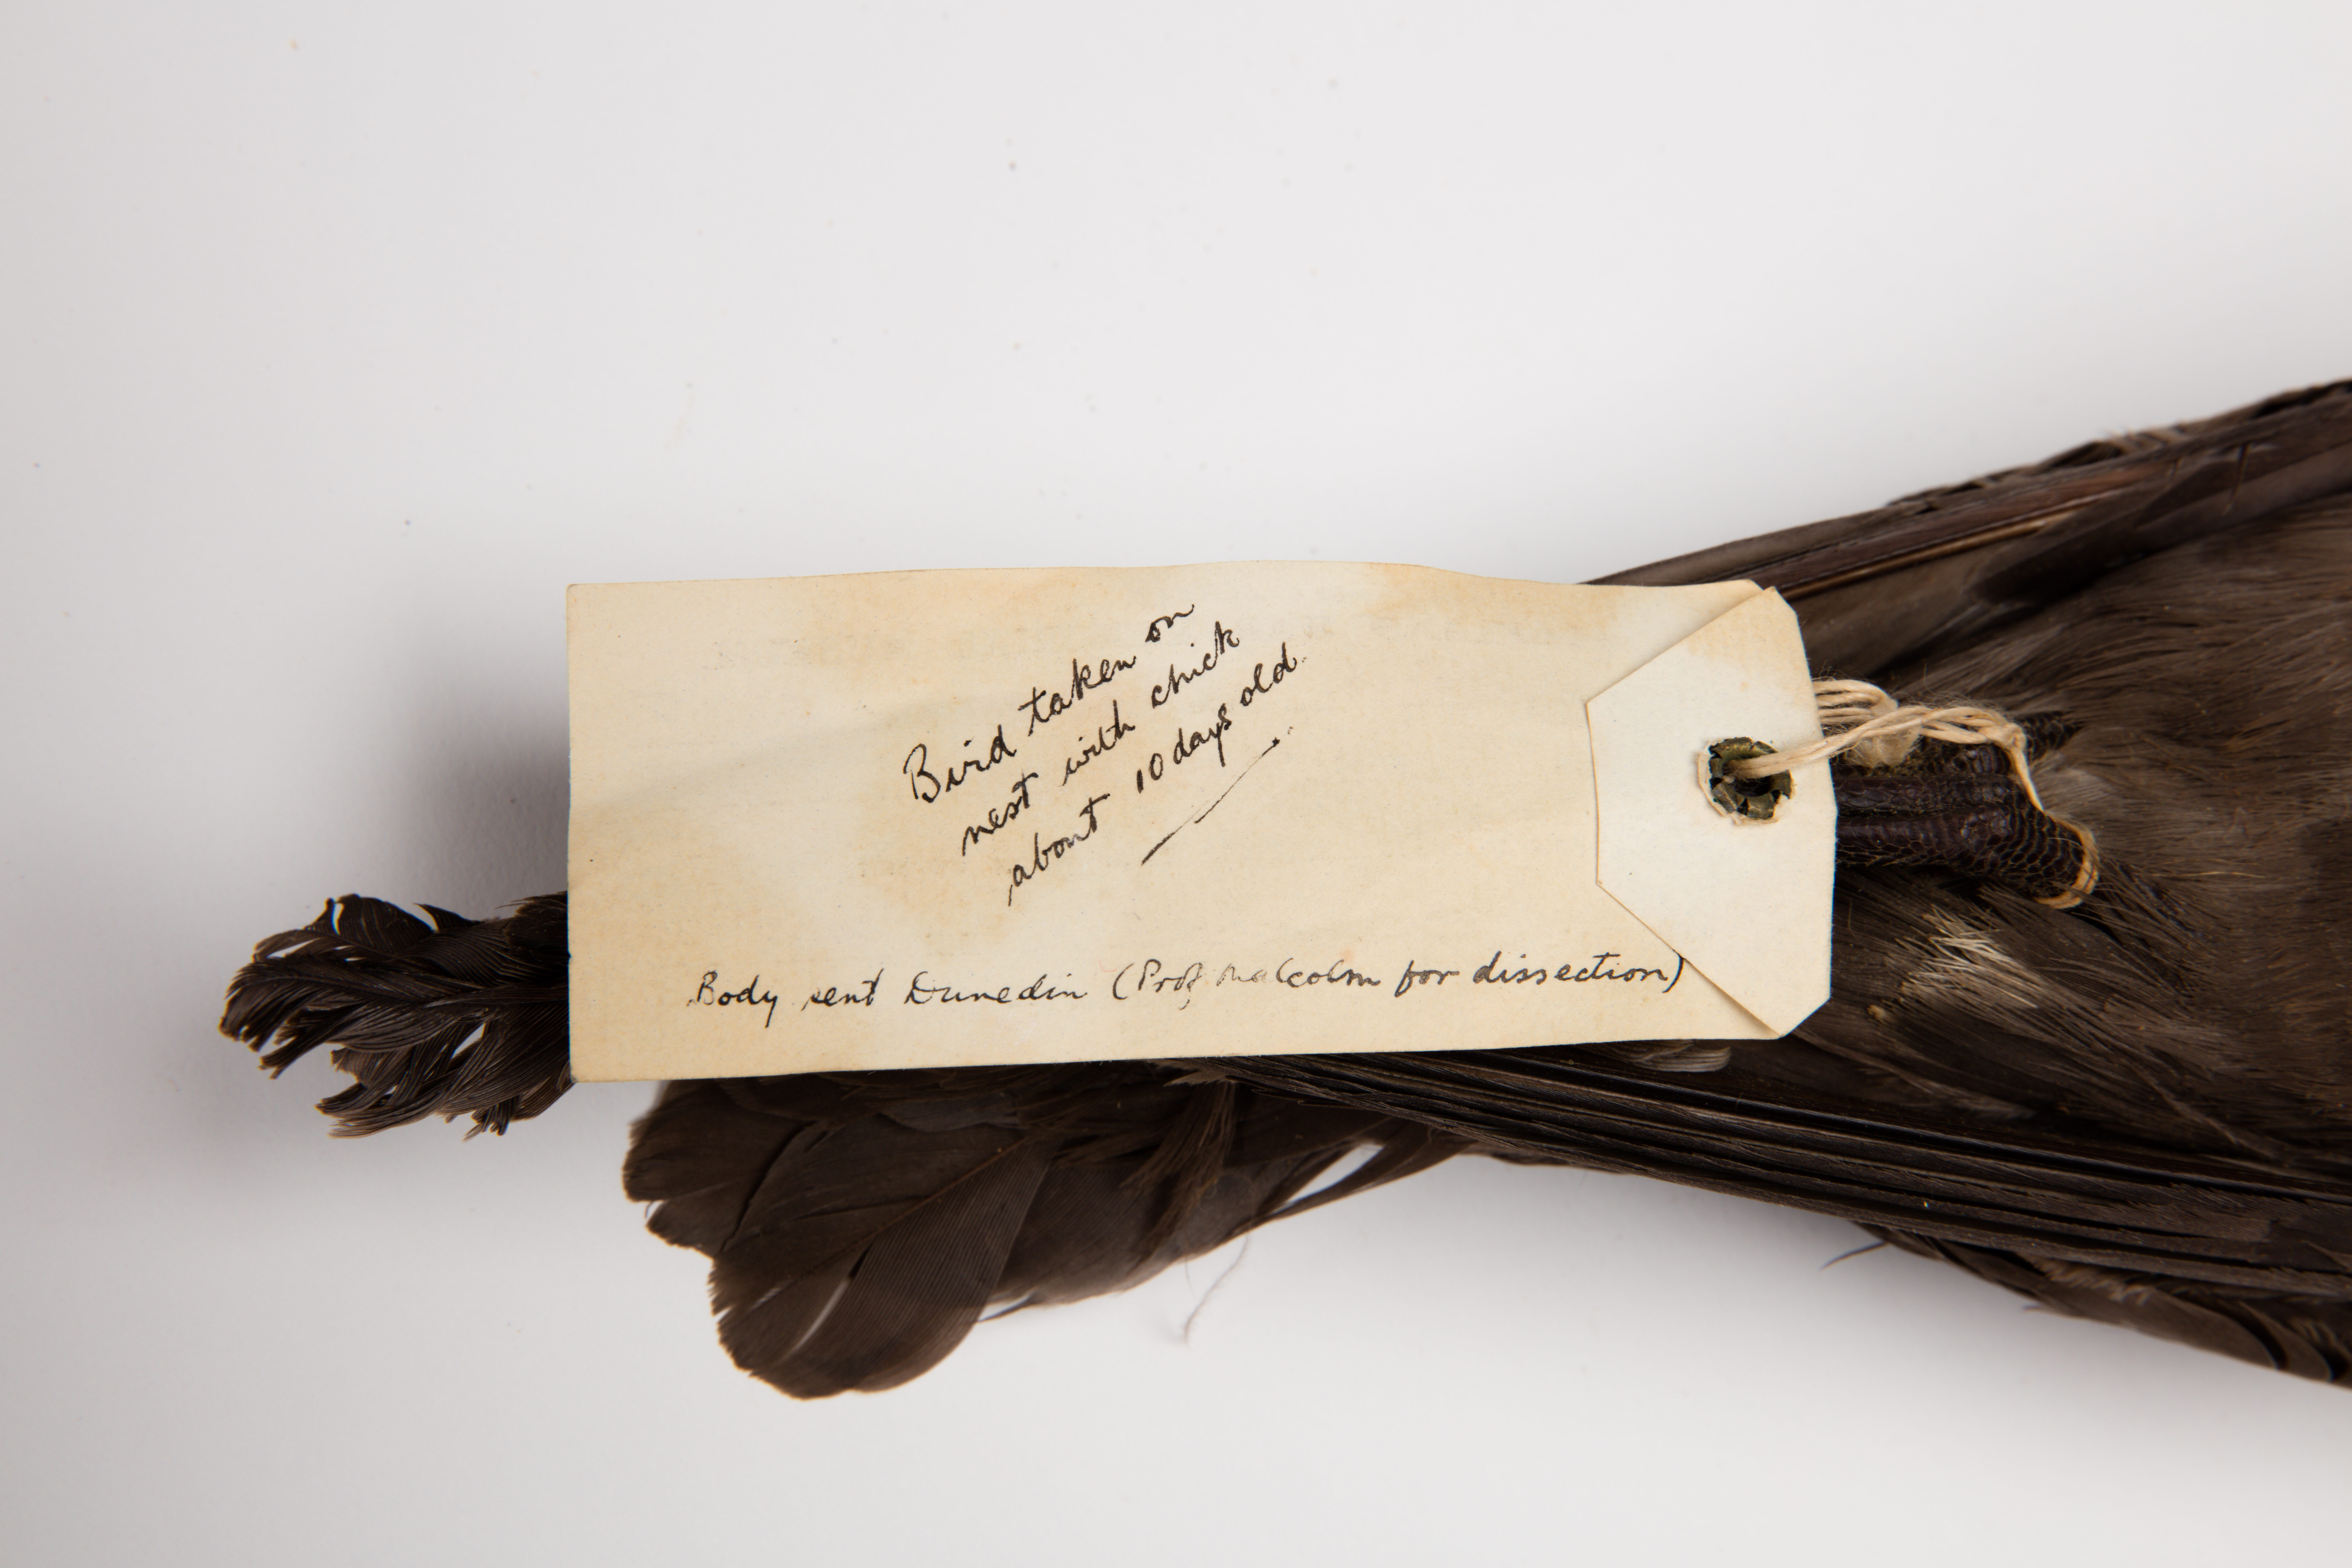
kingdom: Animalia
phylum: Chordata
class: Aves
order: Procellariiformes
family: Procellariidae
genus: Pterodroma
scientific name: Pterodroma macroptera
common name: Great-winged petrel
